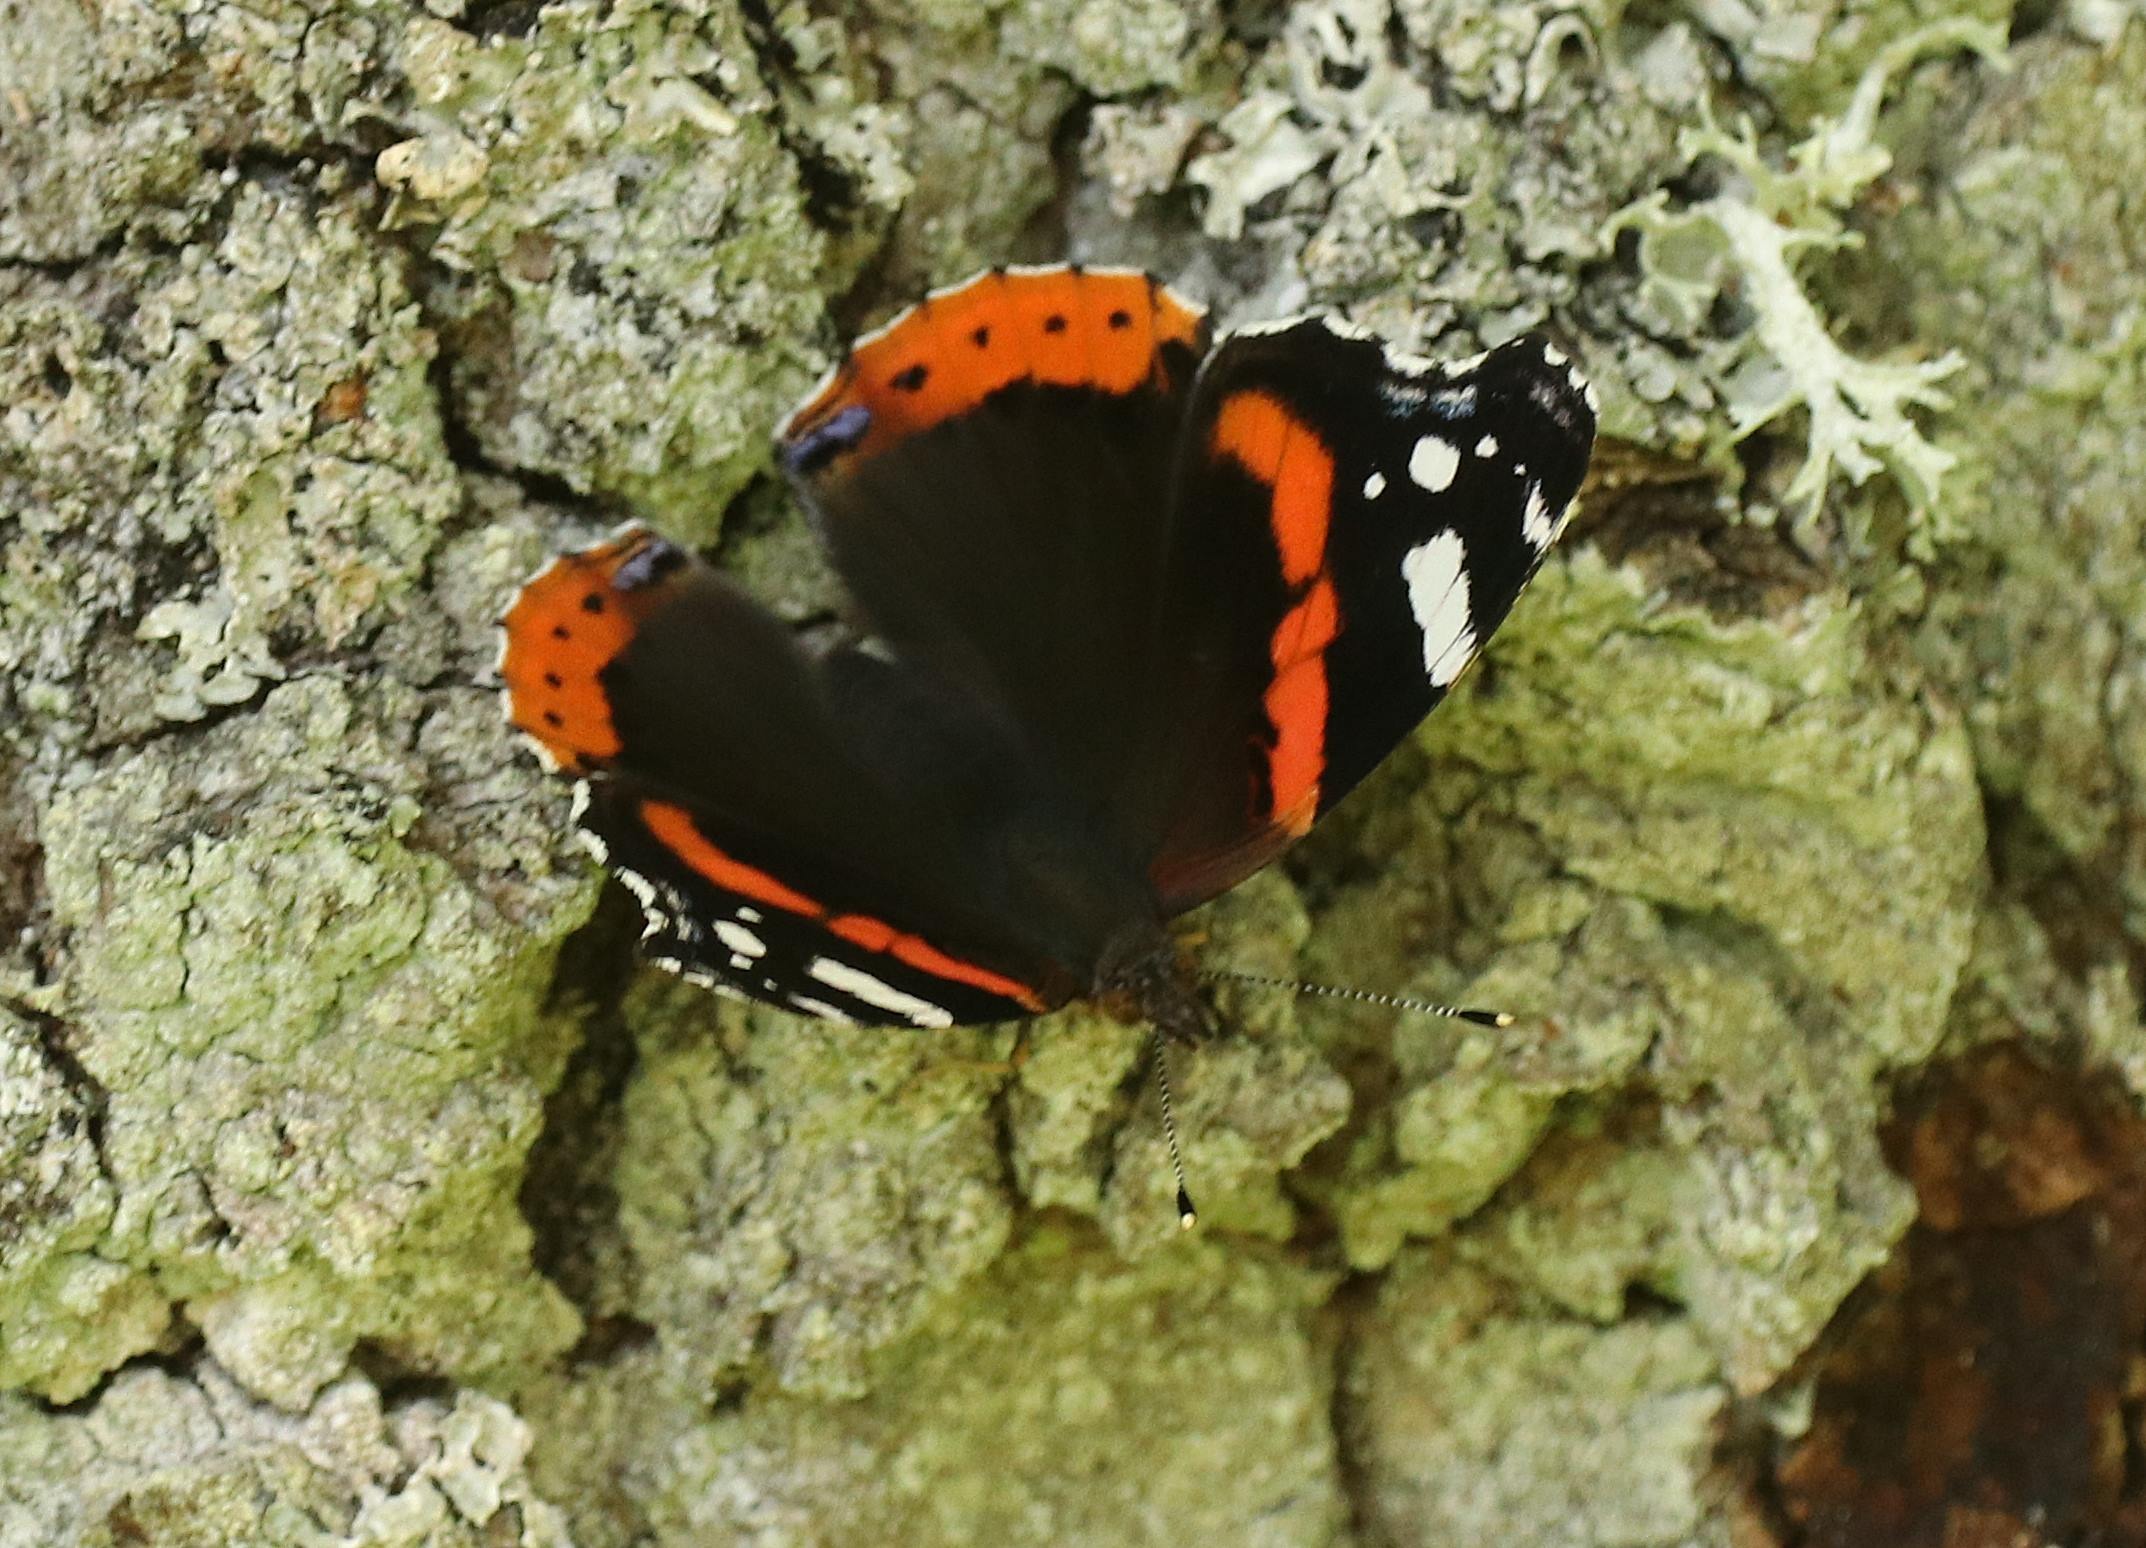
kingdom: Animalia
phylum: Arthropoda
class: Insecta
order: Lepidoptera
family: Nymphalidae
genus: Vanessa
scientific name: Vanessa atalanta
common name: Admiral
